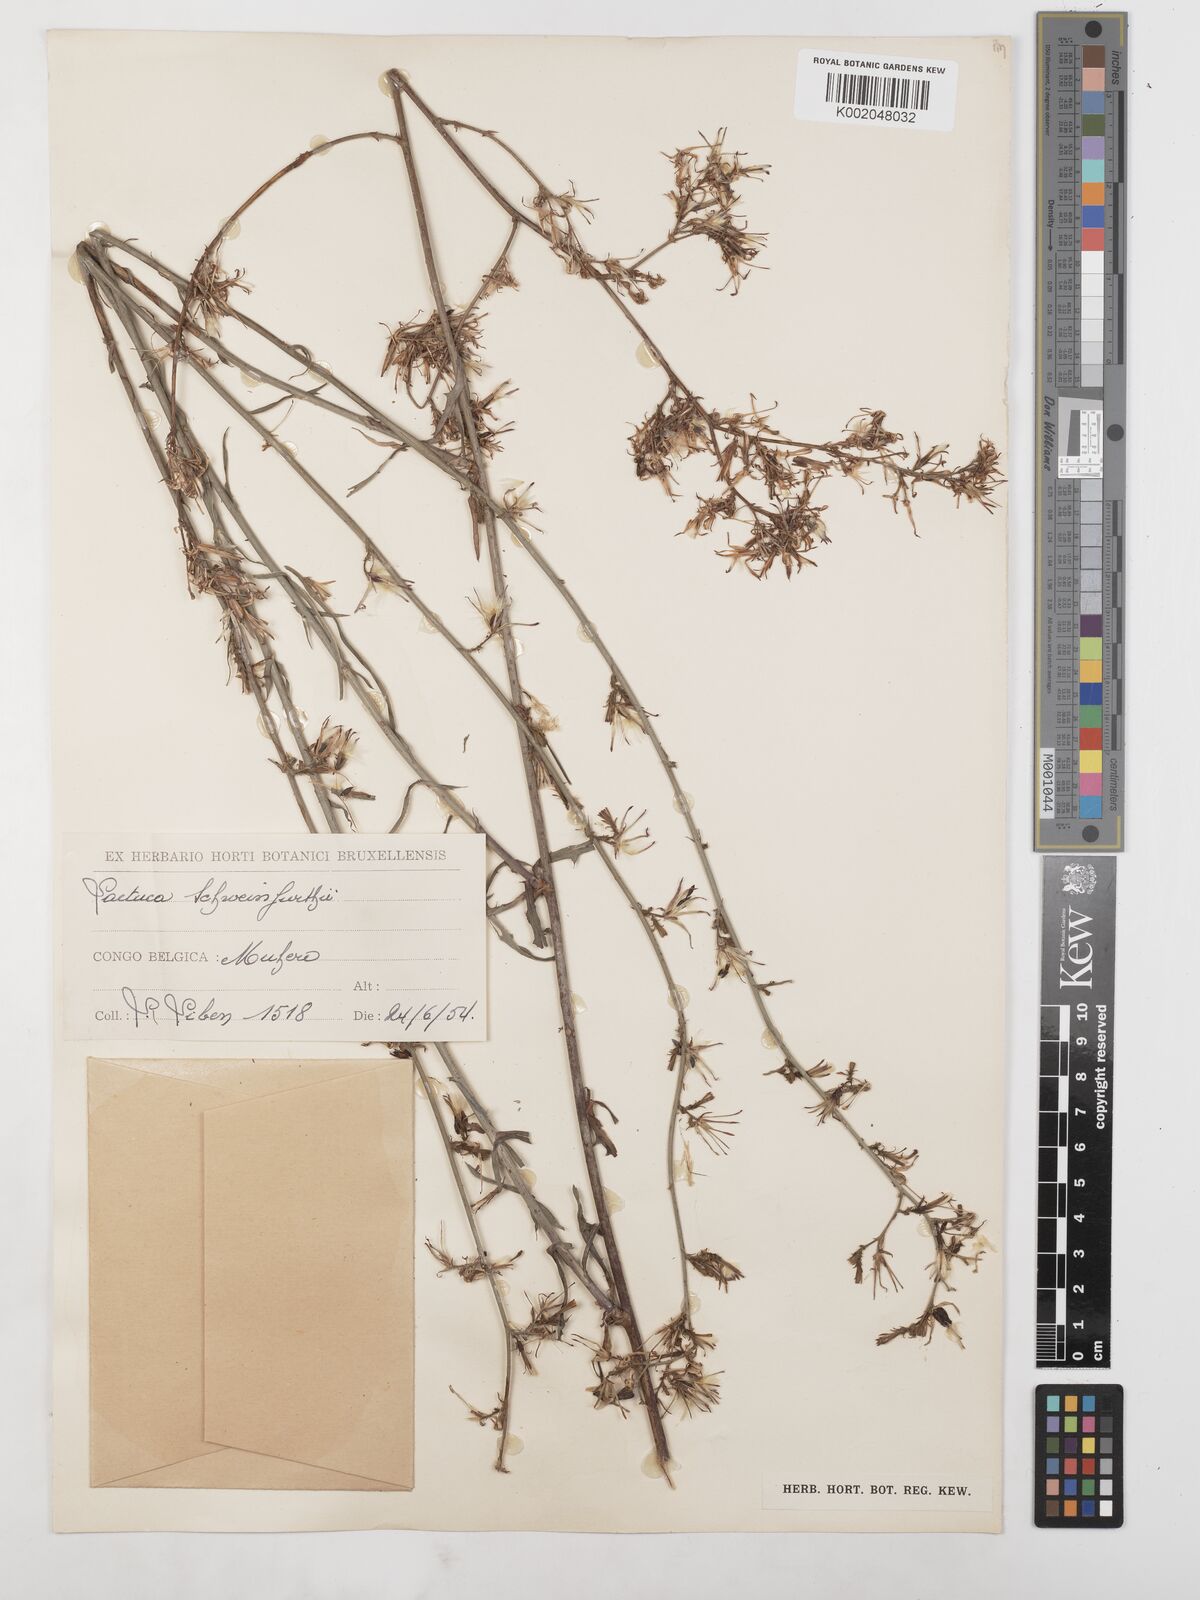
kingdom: Plantae
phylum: Tracheophyta
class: Magnoliopsida
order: Asterales
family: Asteraceae
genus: Lactuca
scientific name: Lactuca inermis
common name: Wild lettuce
